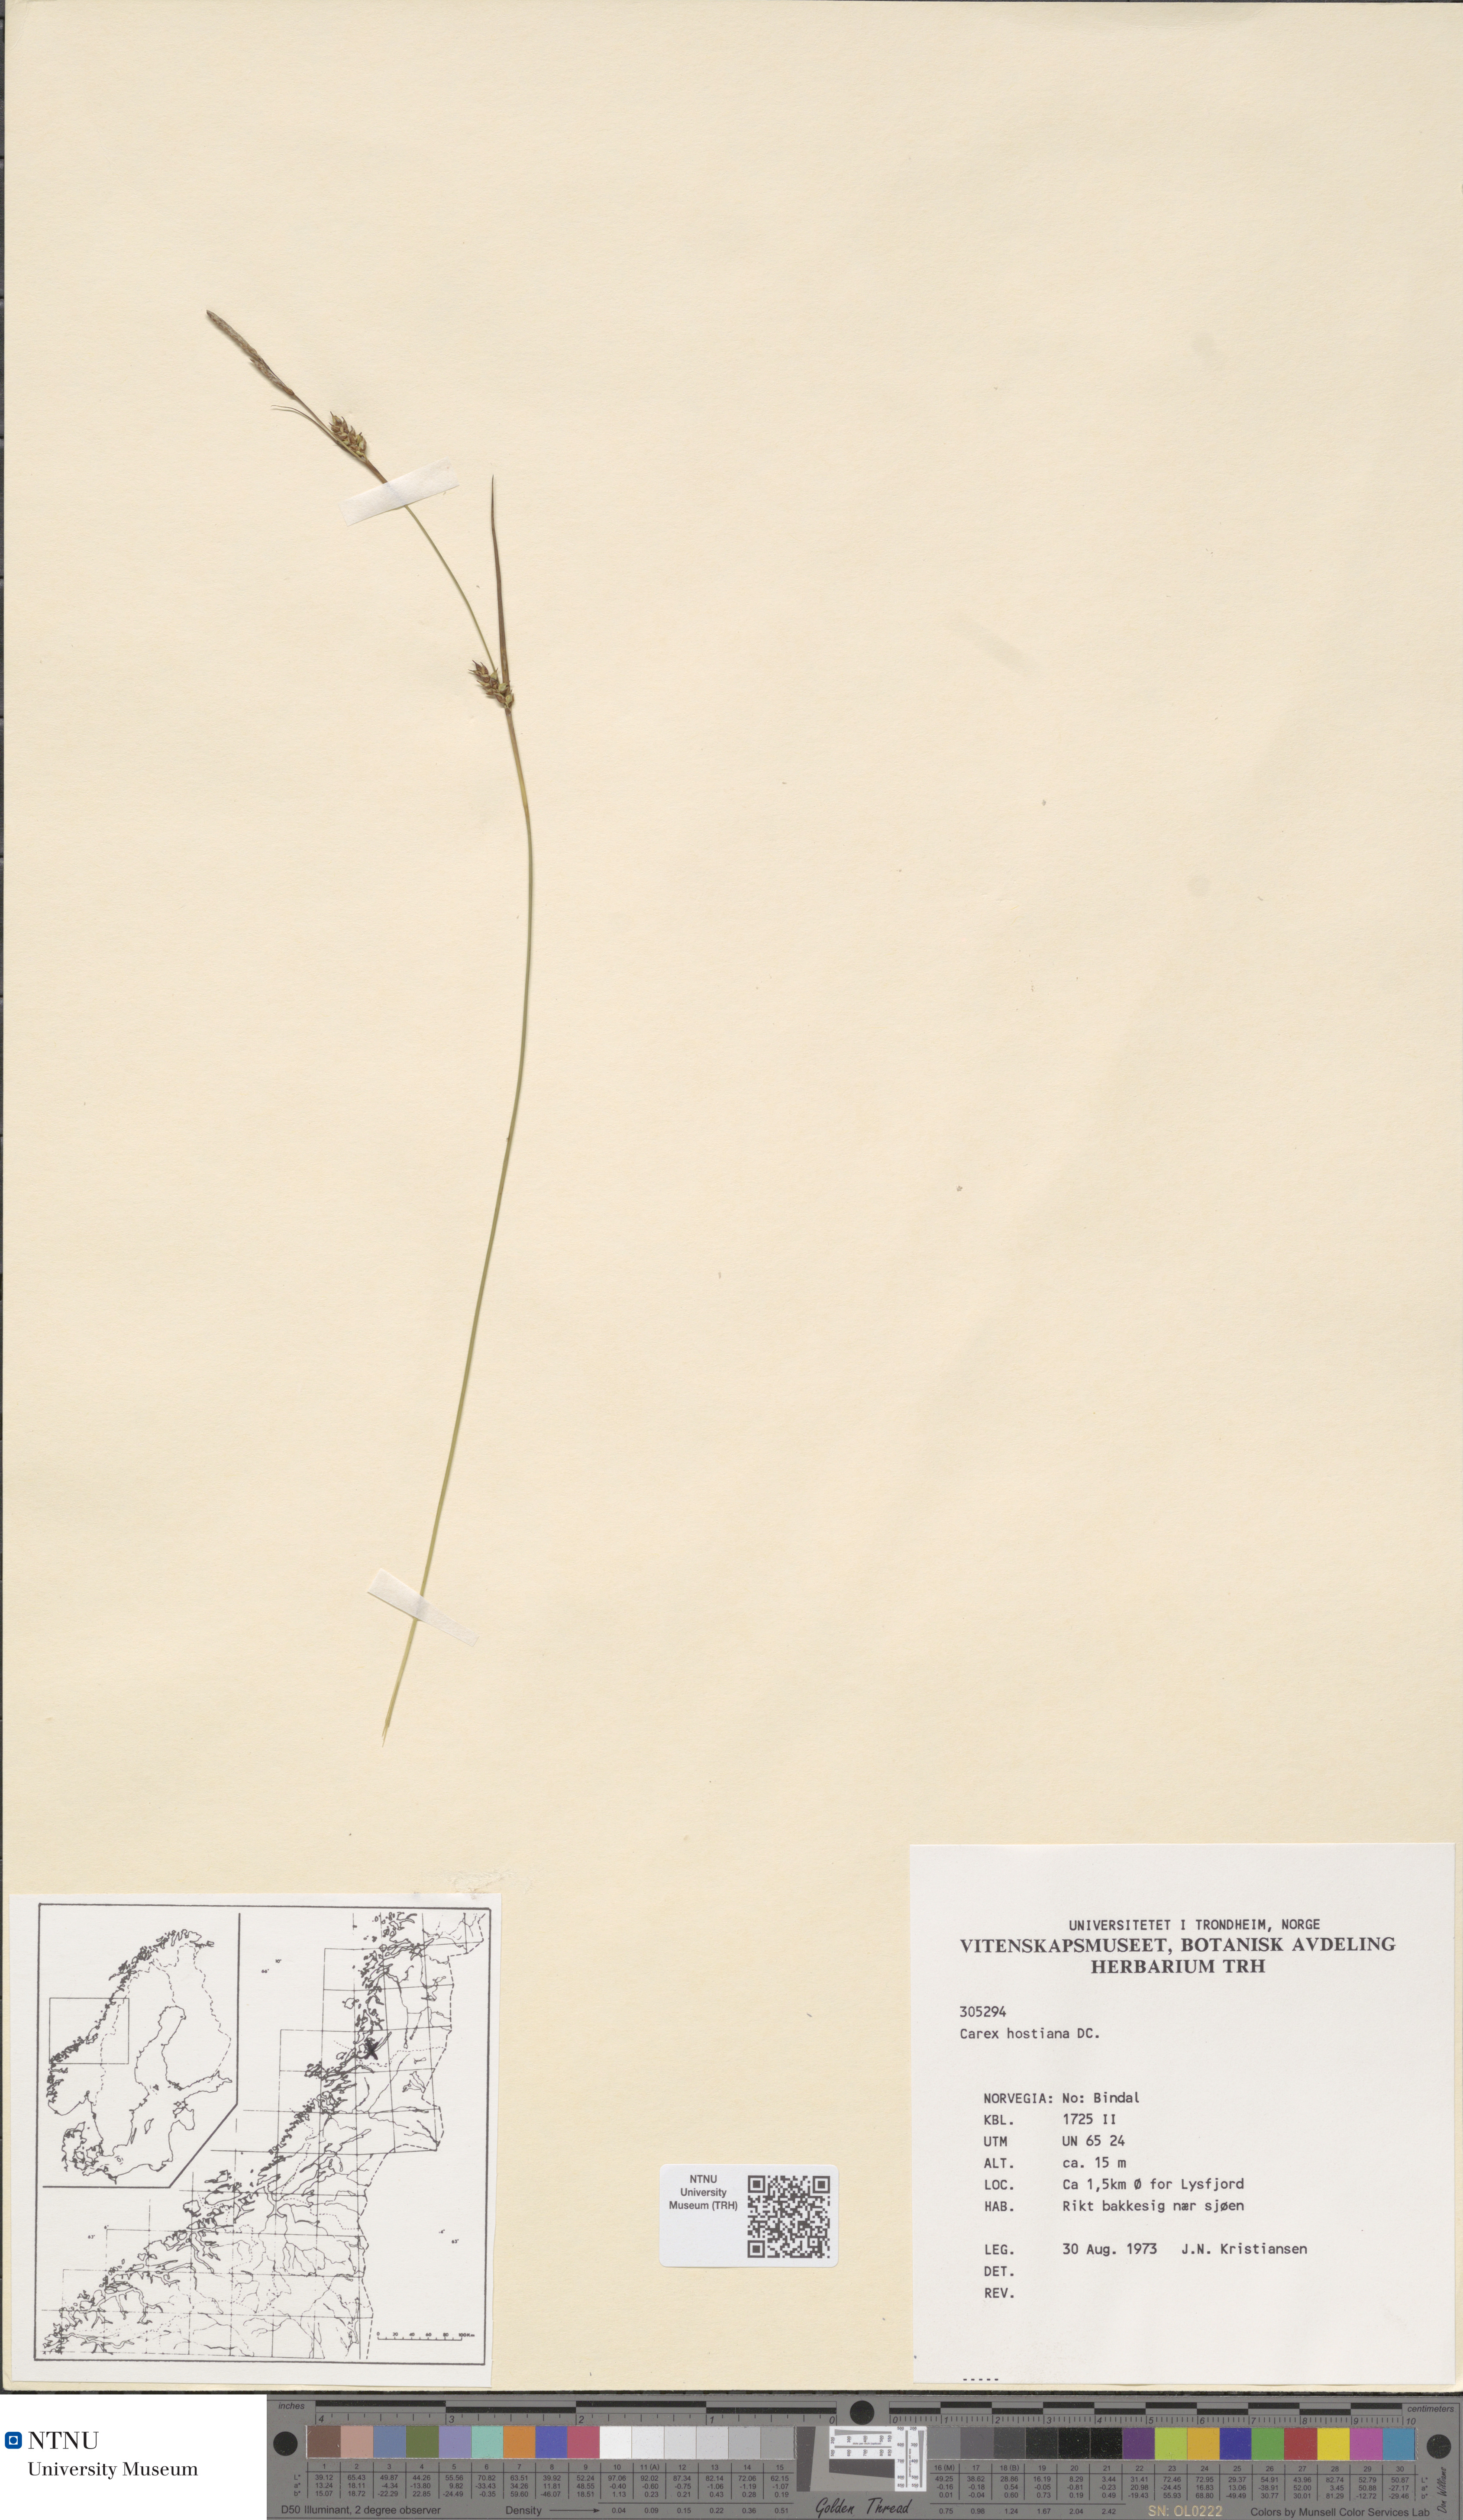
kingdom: Plantae
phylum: Tracheophyta
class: Liliopsida
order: Poales
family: Cyperaceae
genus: Carex
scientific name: Carex hostiana
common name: Tawny sedge
